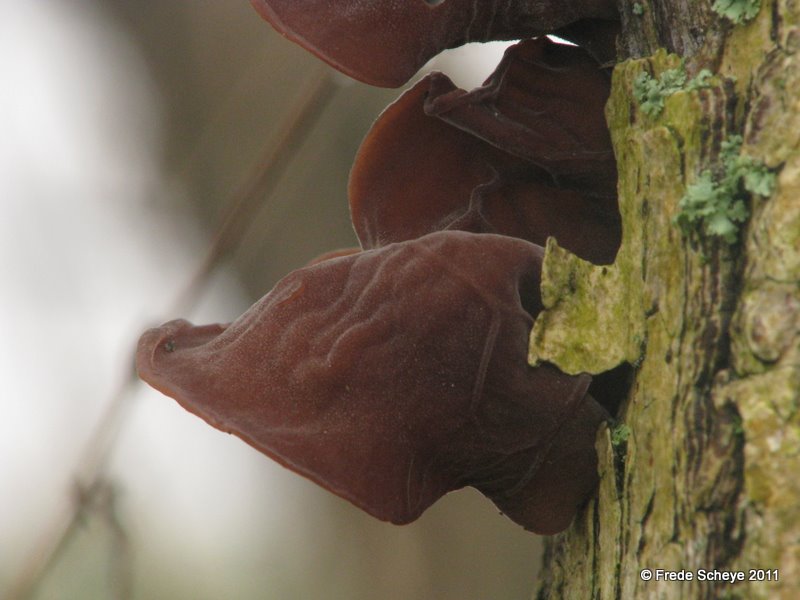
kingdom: Fungi
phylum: Basidiomycota
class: Agaricomycetes
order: Auriculariales
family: Auriculariaceae
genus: Auricularia
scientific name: Auricularia auricula-judae
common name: almindelig judasøre
